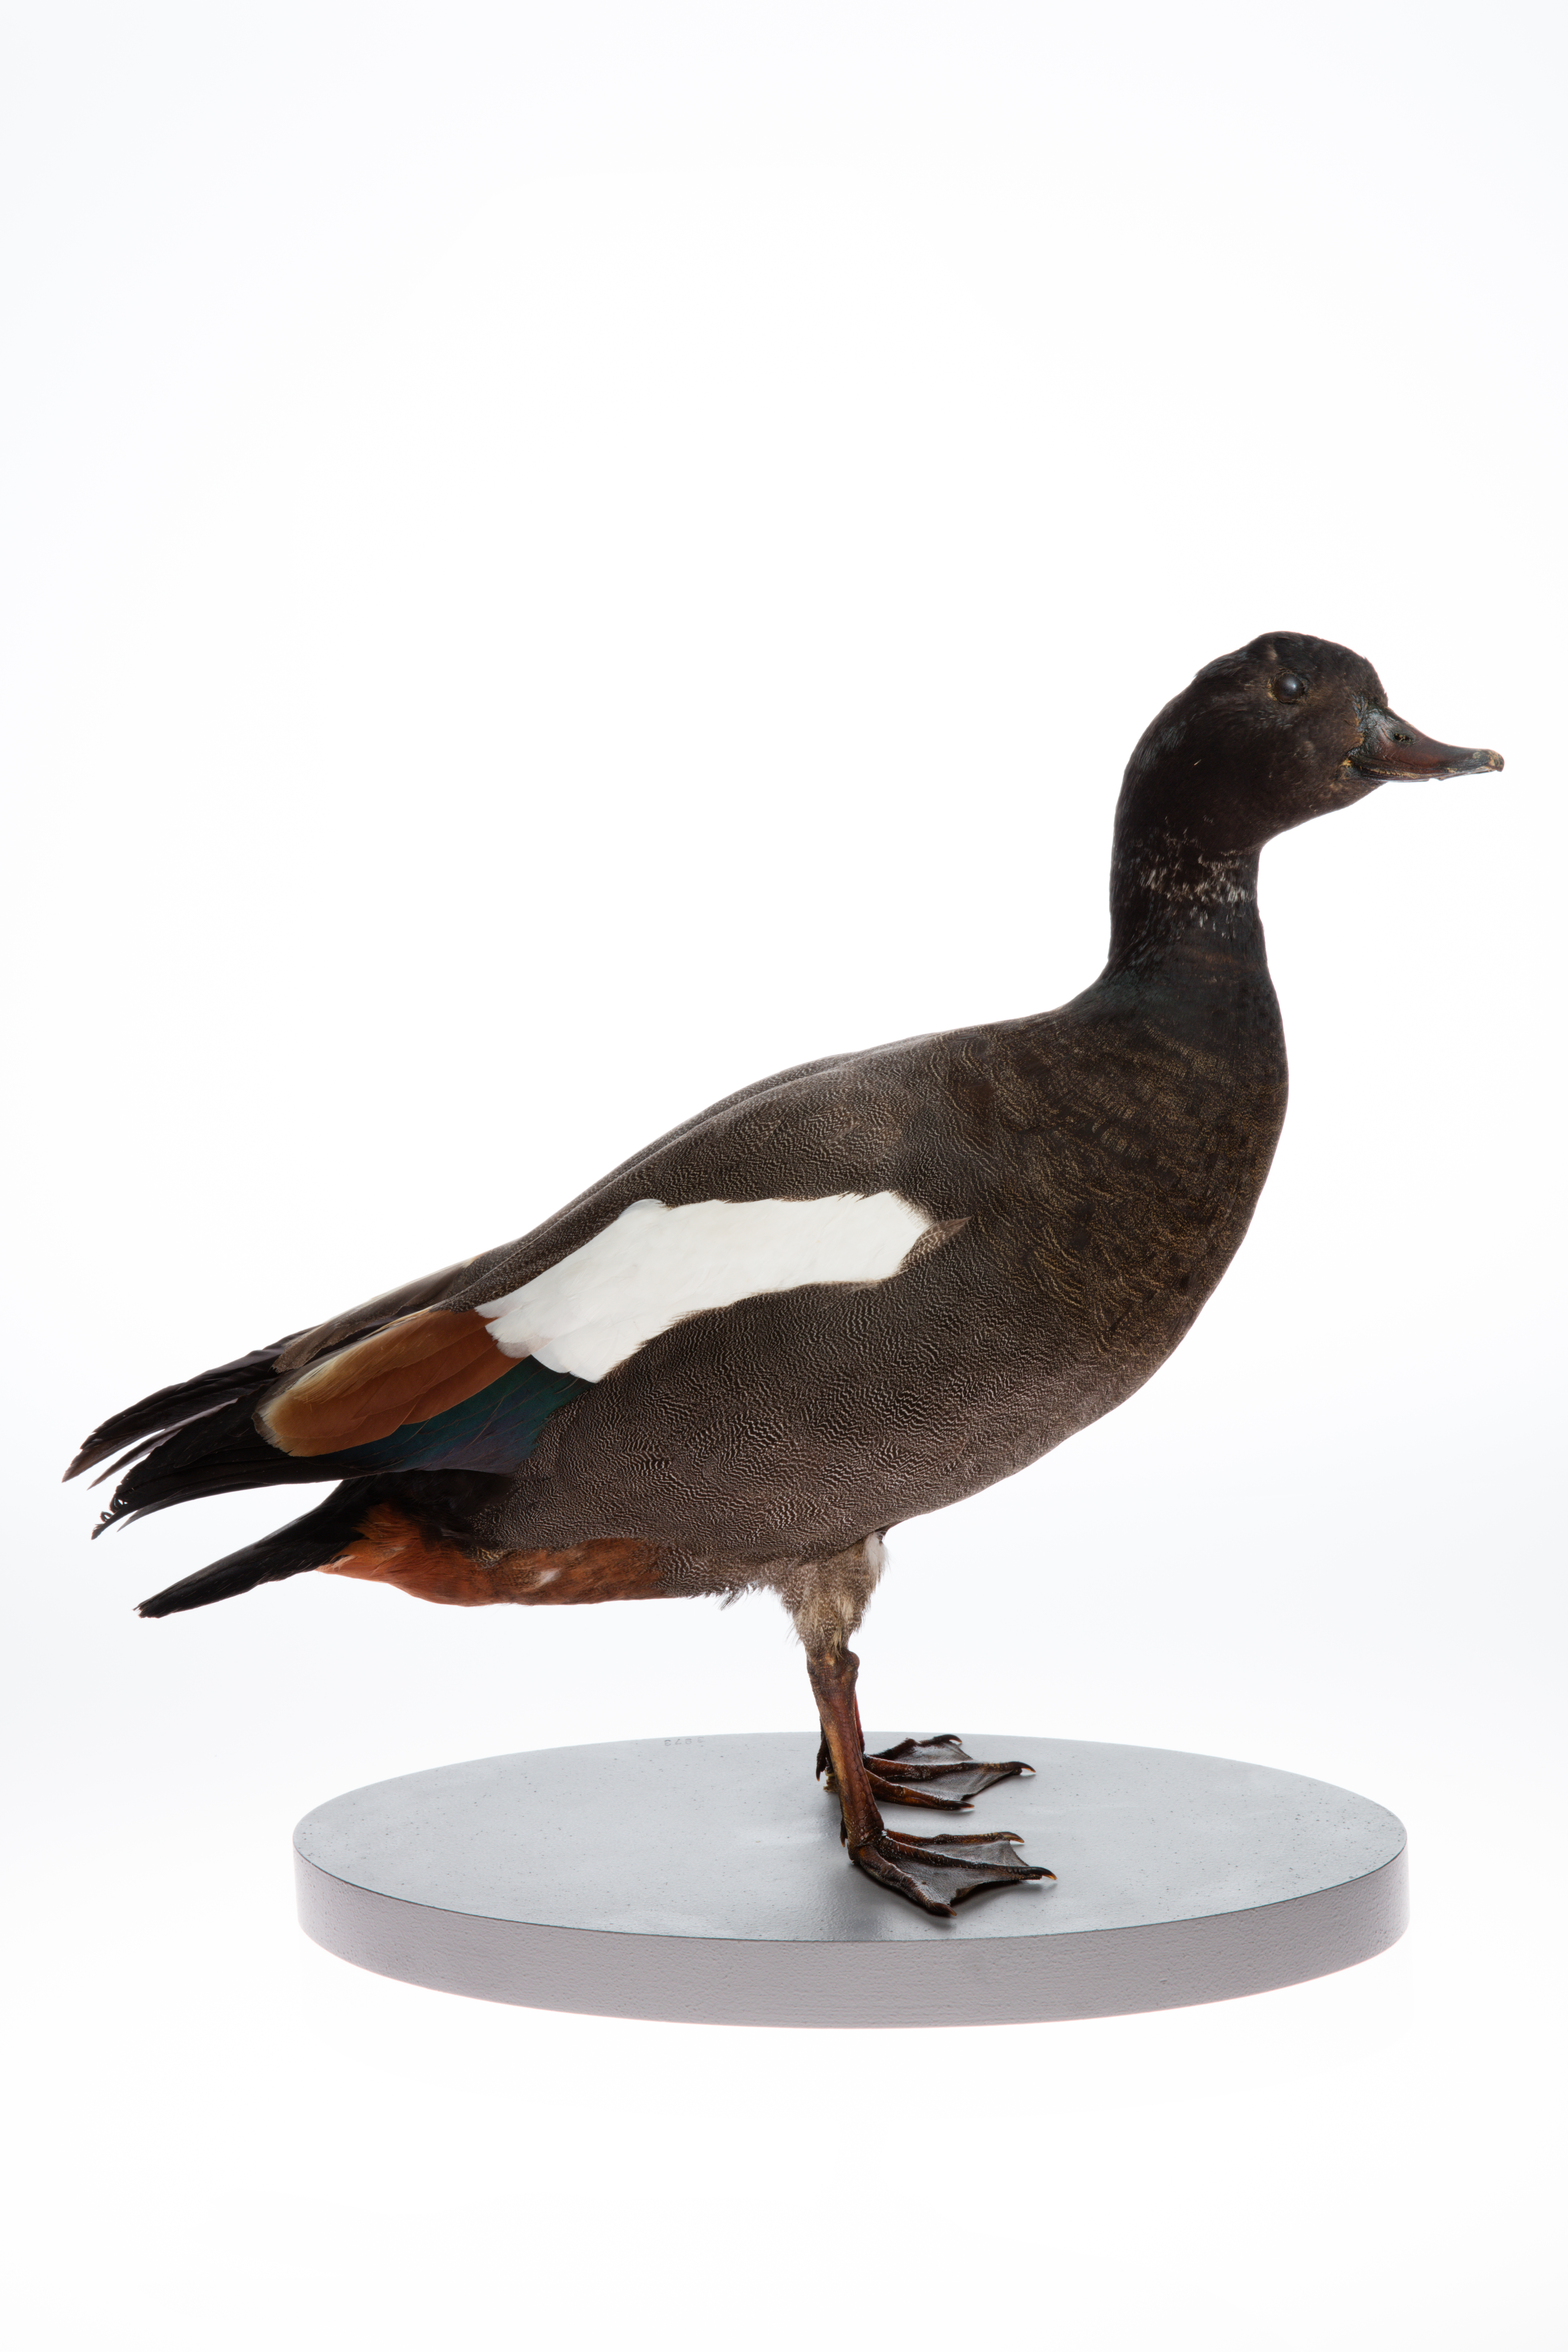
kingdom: Animalia
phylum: Chordata
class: Aves
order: Anseriformes
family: Anatidae
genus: Tadorna
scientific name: Tadorna variegata
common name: Paradise shelduck
